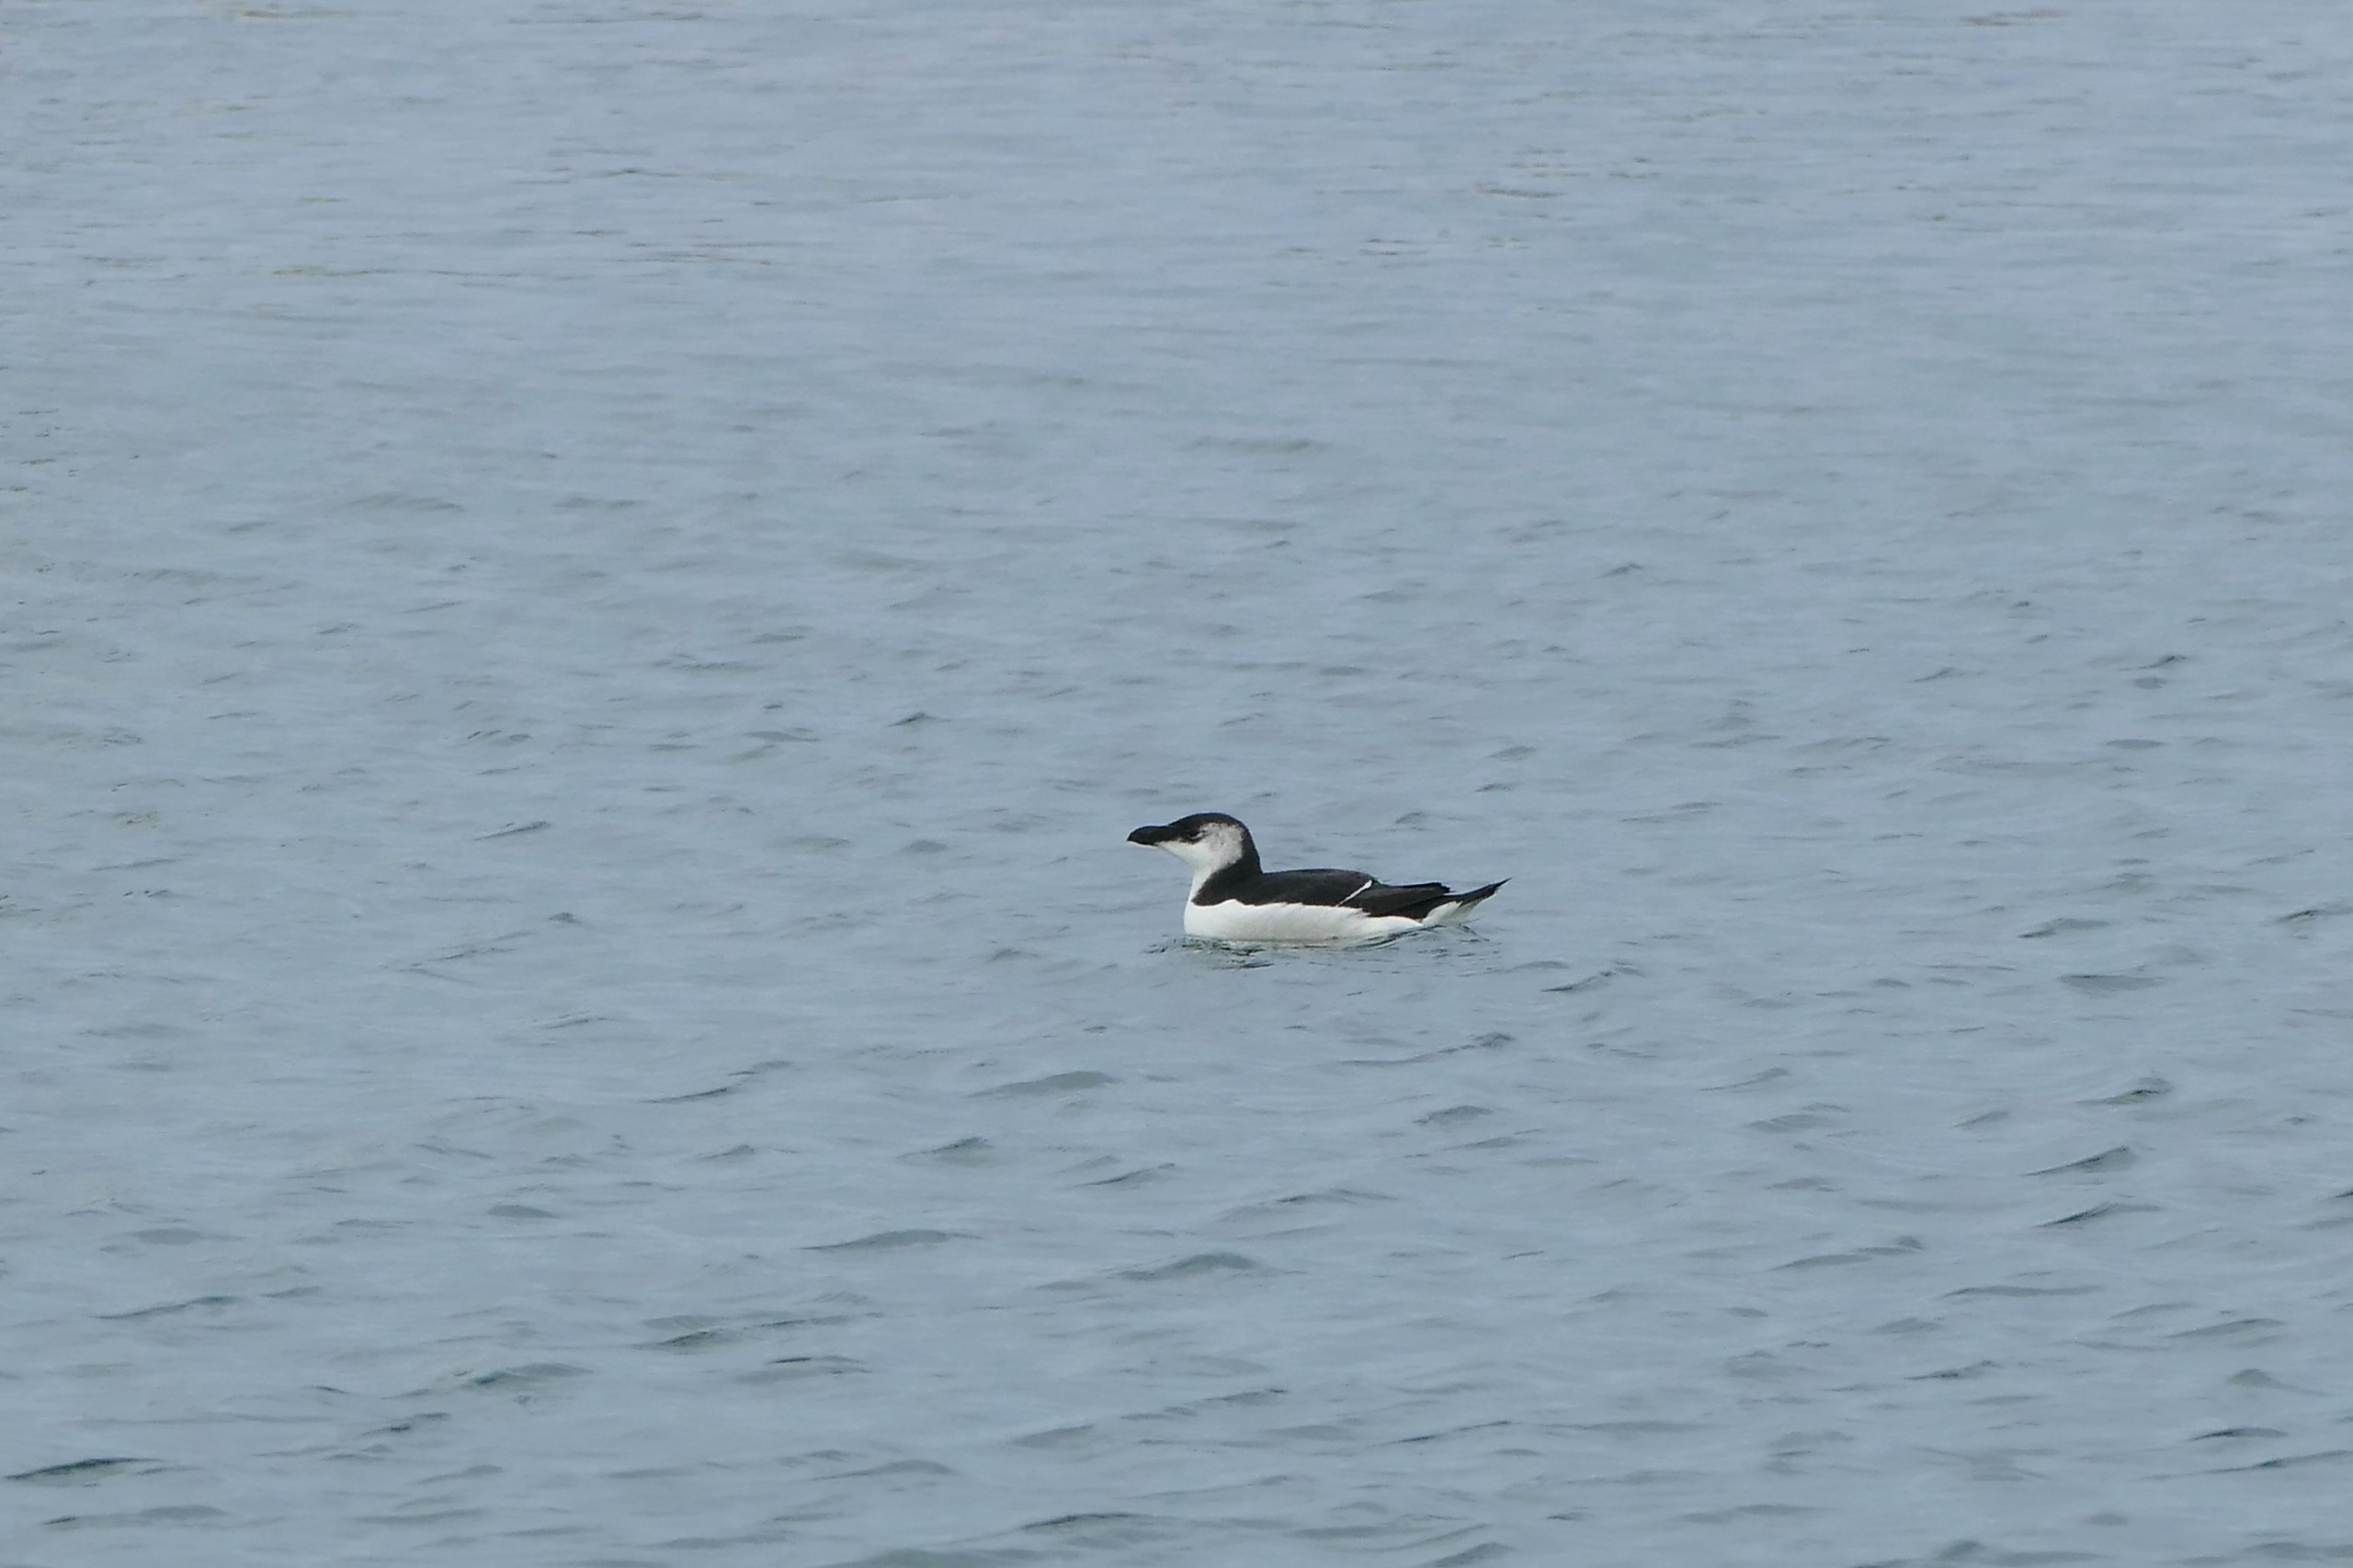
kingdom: Animalia
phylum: Chordata
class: Aves
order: Charadriiformes
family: Alcidae
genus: Alca
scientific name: Alca torda
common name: Alk
